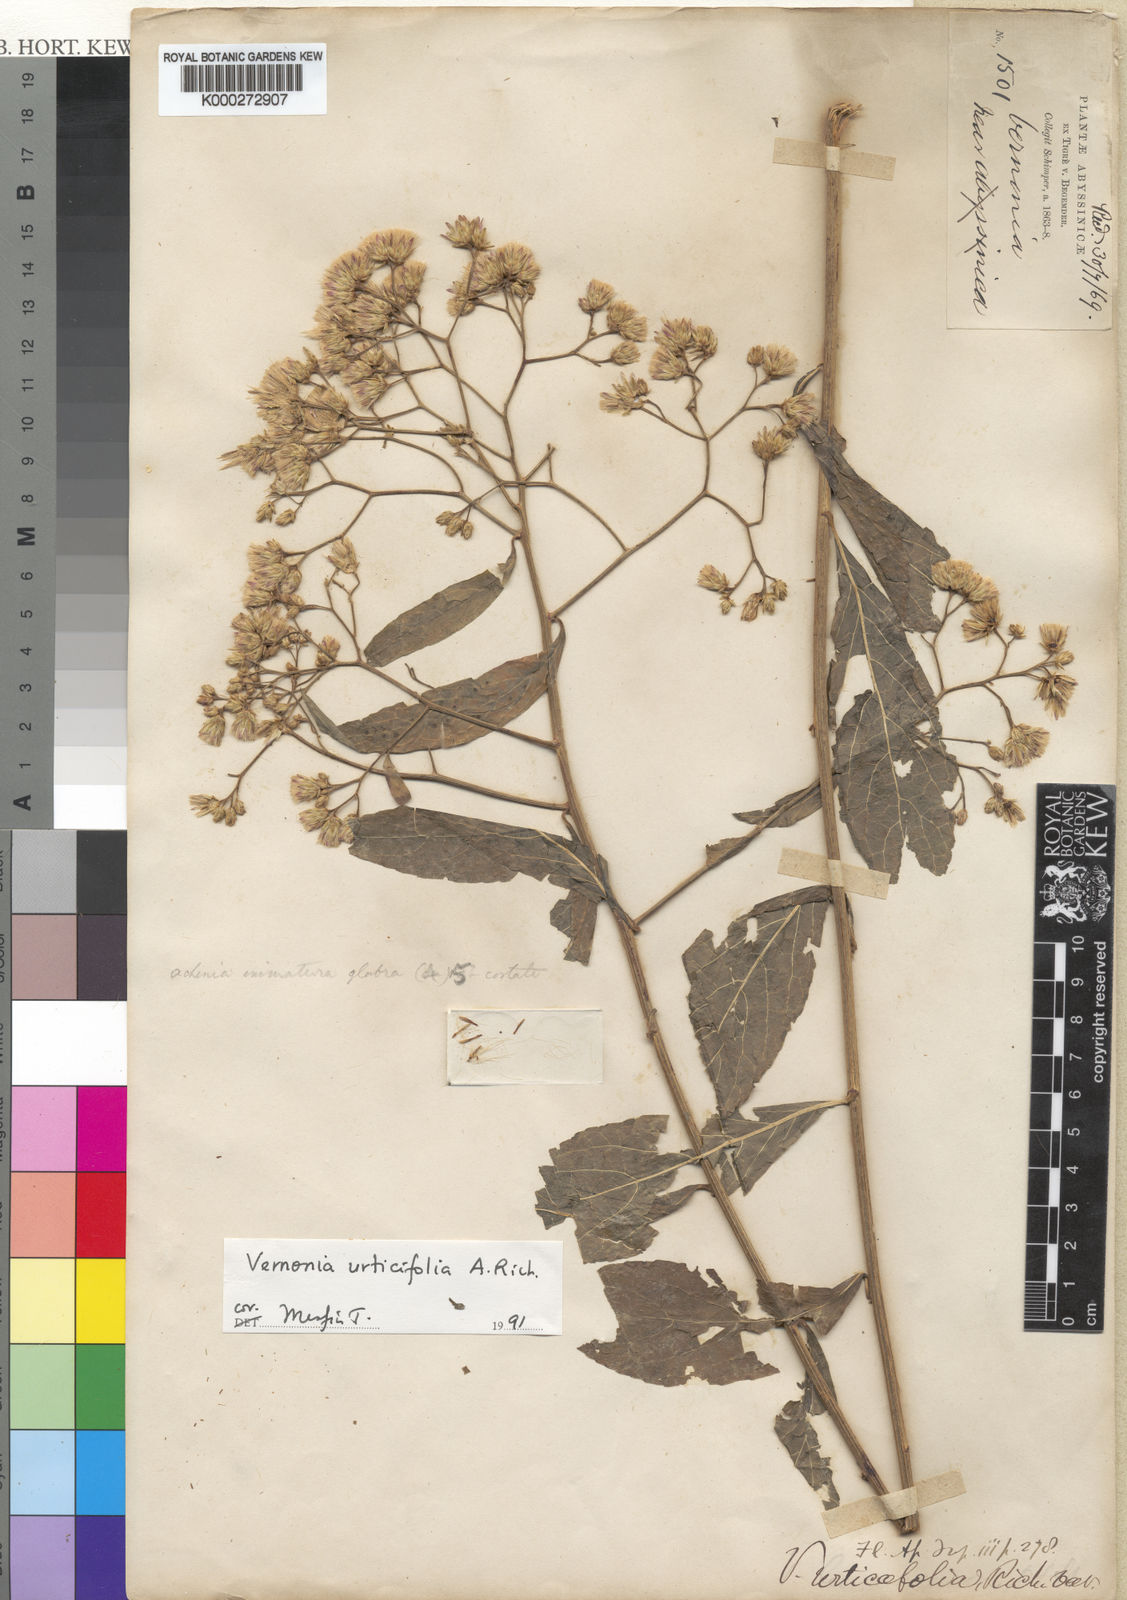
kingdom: Plantae
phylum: Tracheophyta
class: Magnoliopsida
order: Asterales
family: Asteraceae
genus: Gymnanthemum
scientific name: Gymnanthemum urticifolium
